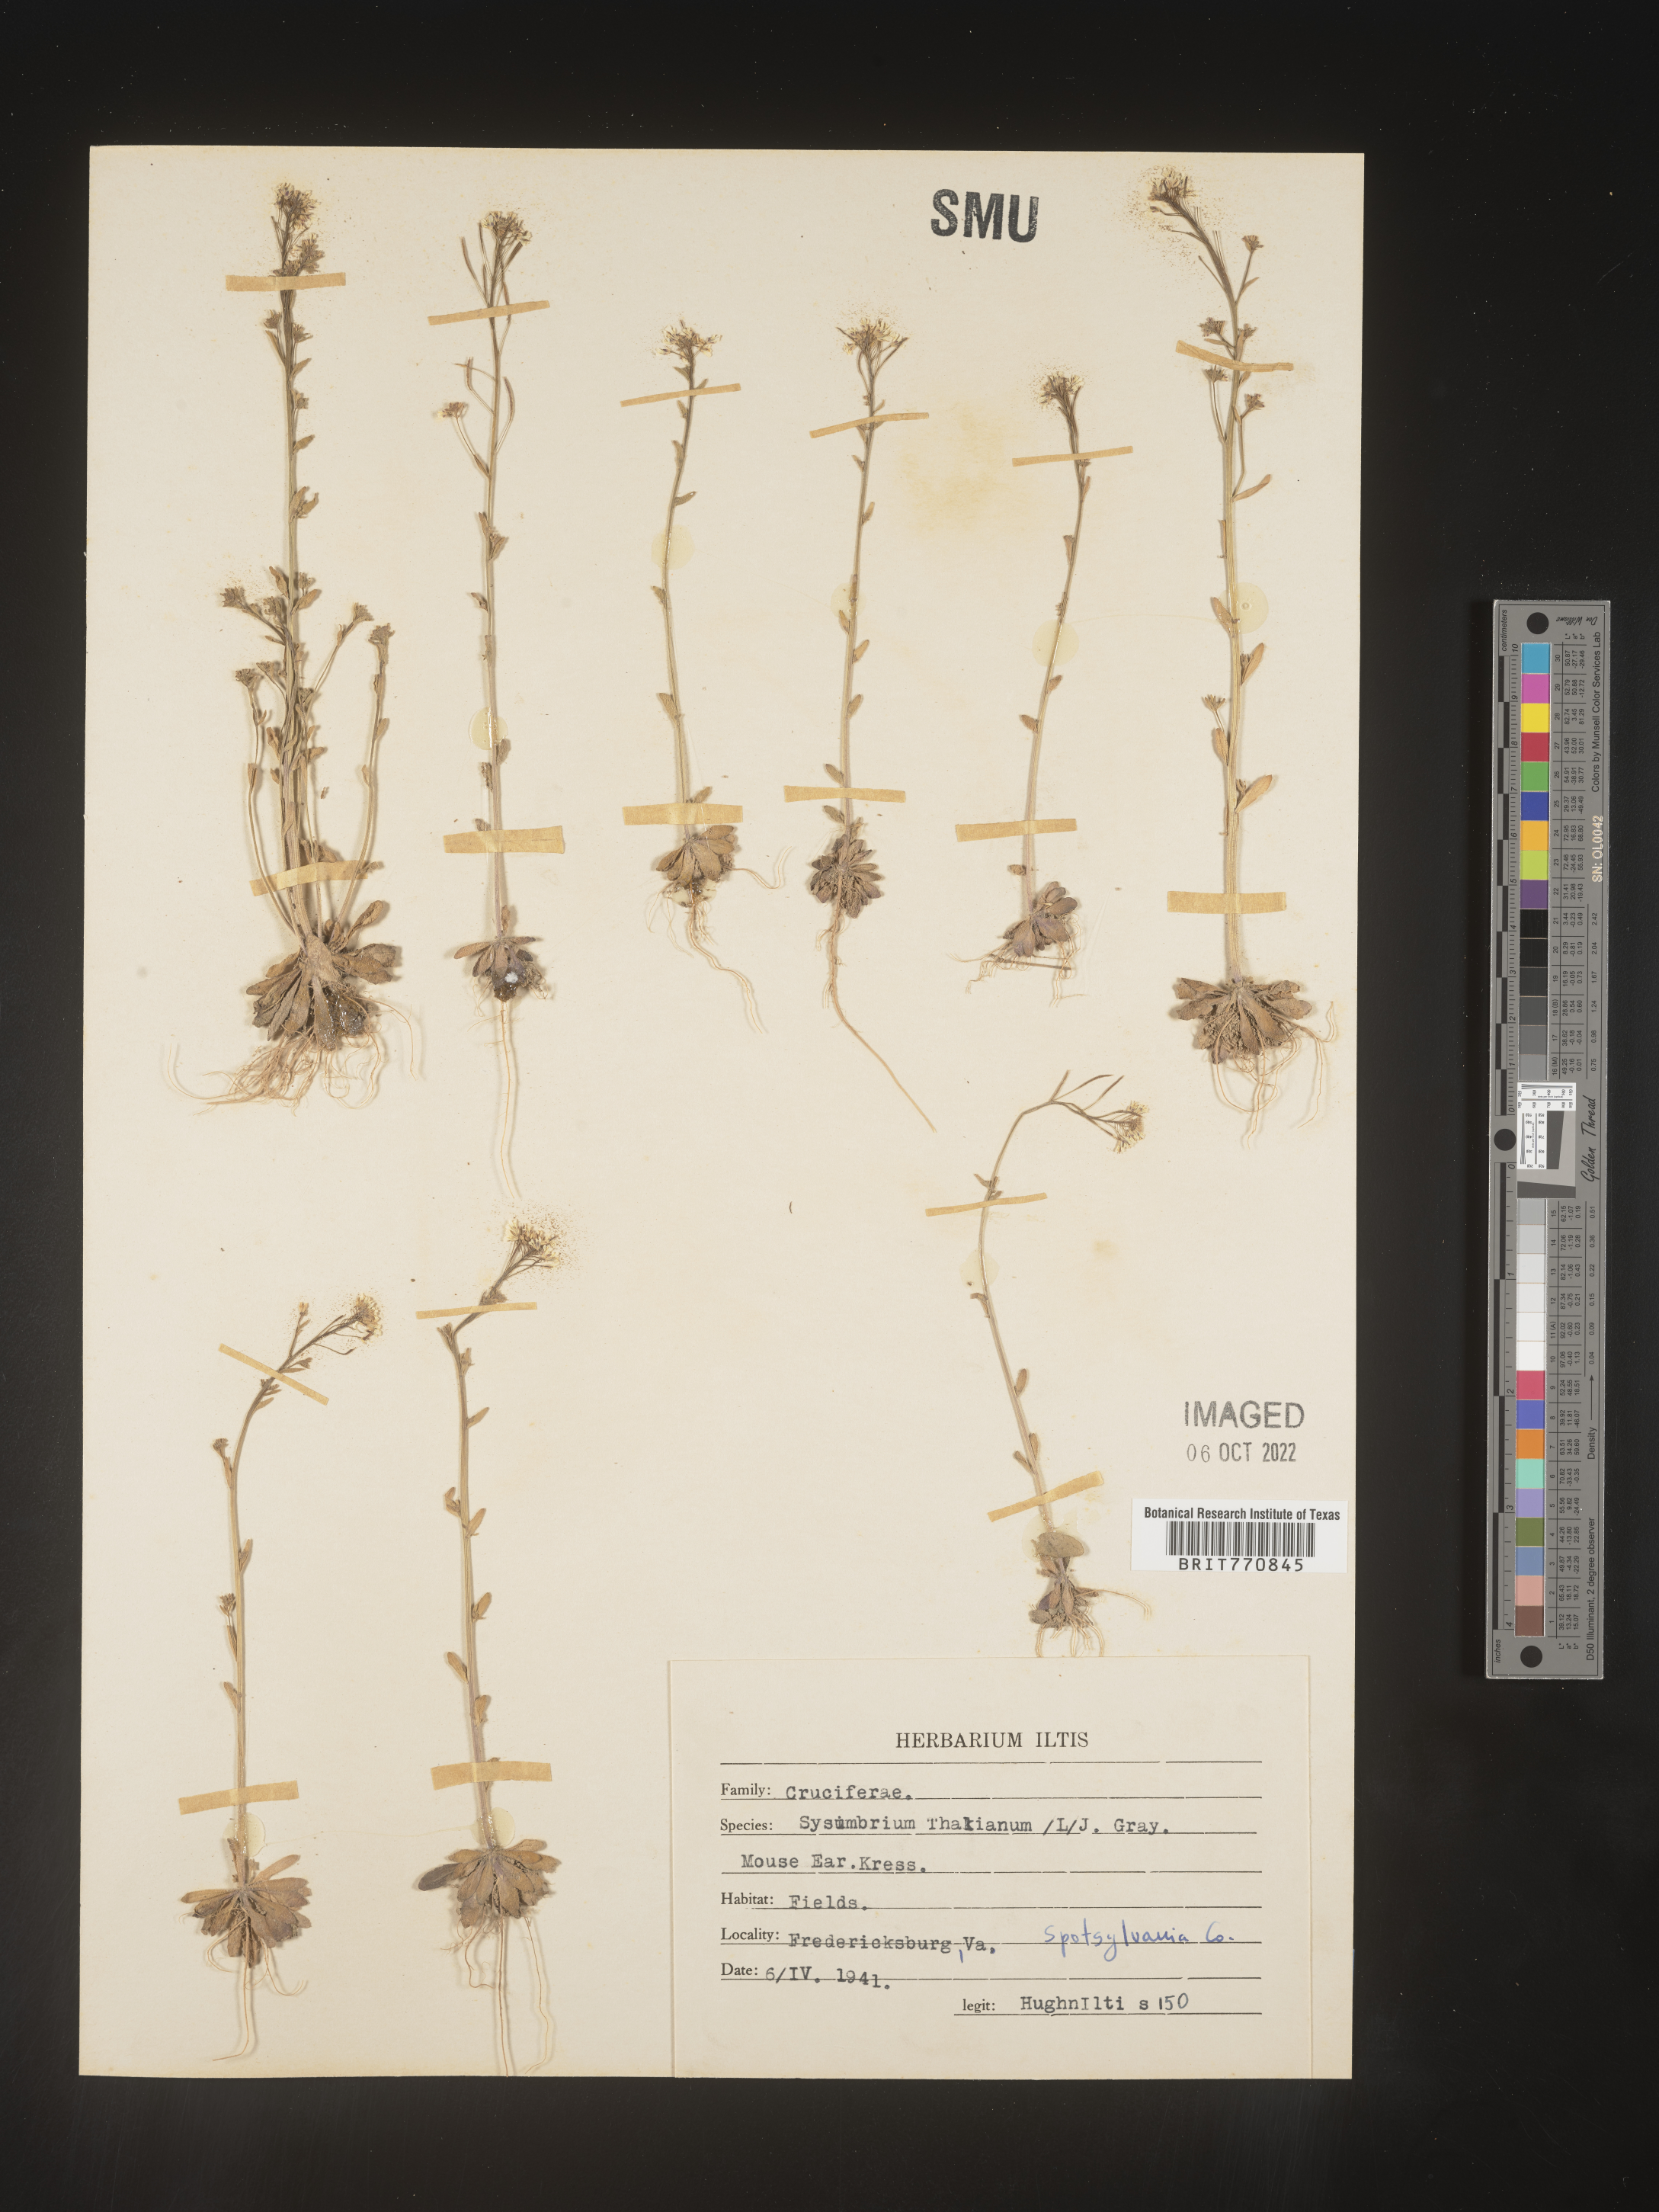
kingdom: Plantae
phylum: Tracheophyta
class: Magnoliopsida
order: Brassicales
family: Brassicaceae
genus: Arabidopsis
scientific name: Arabidopsis thaliana
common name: Thale cress
